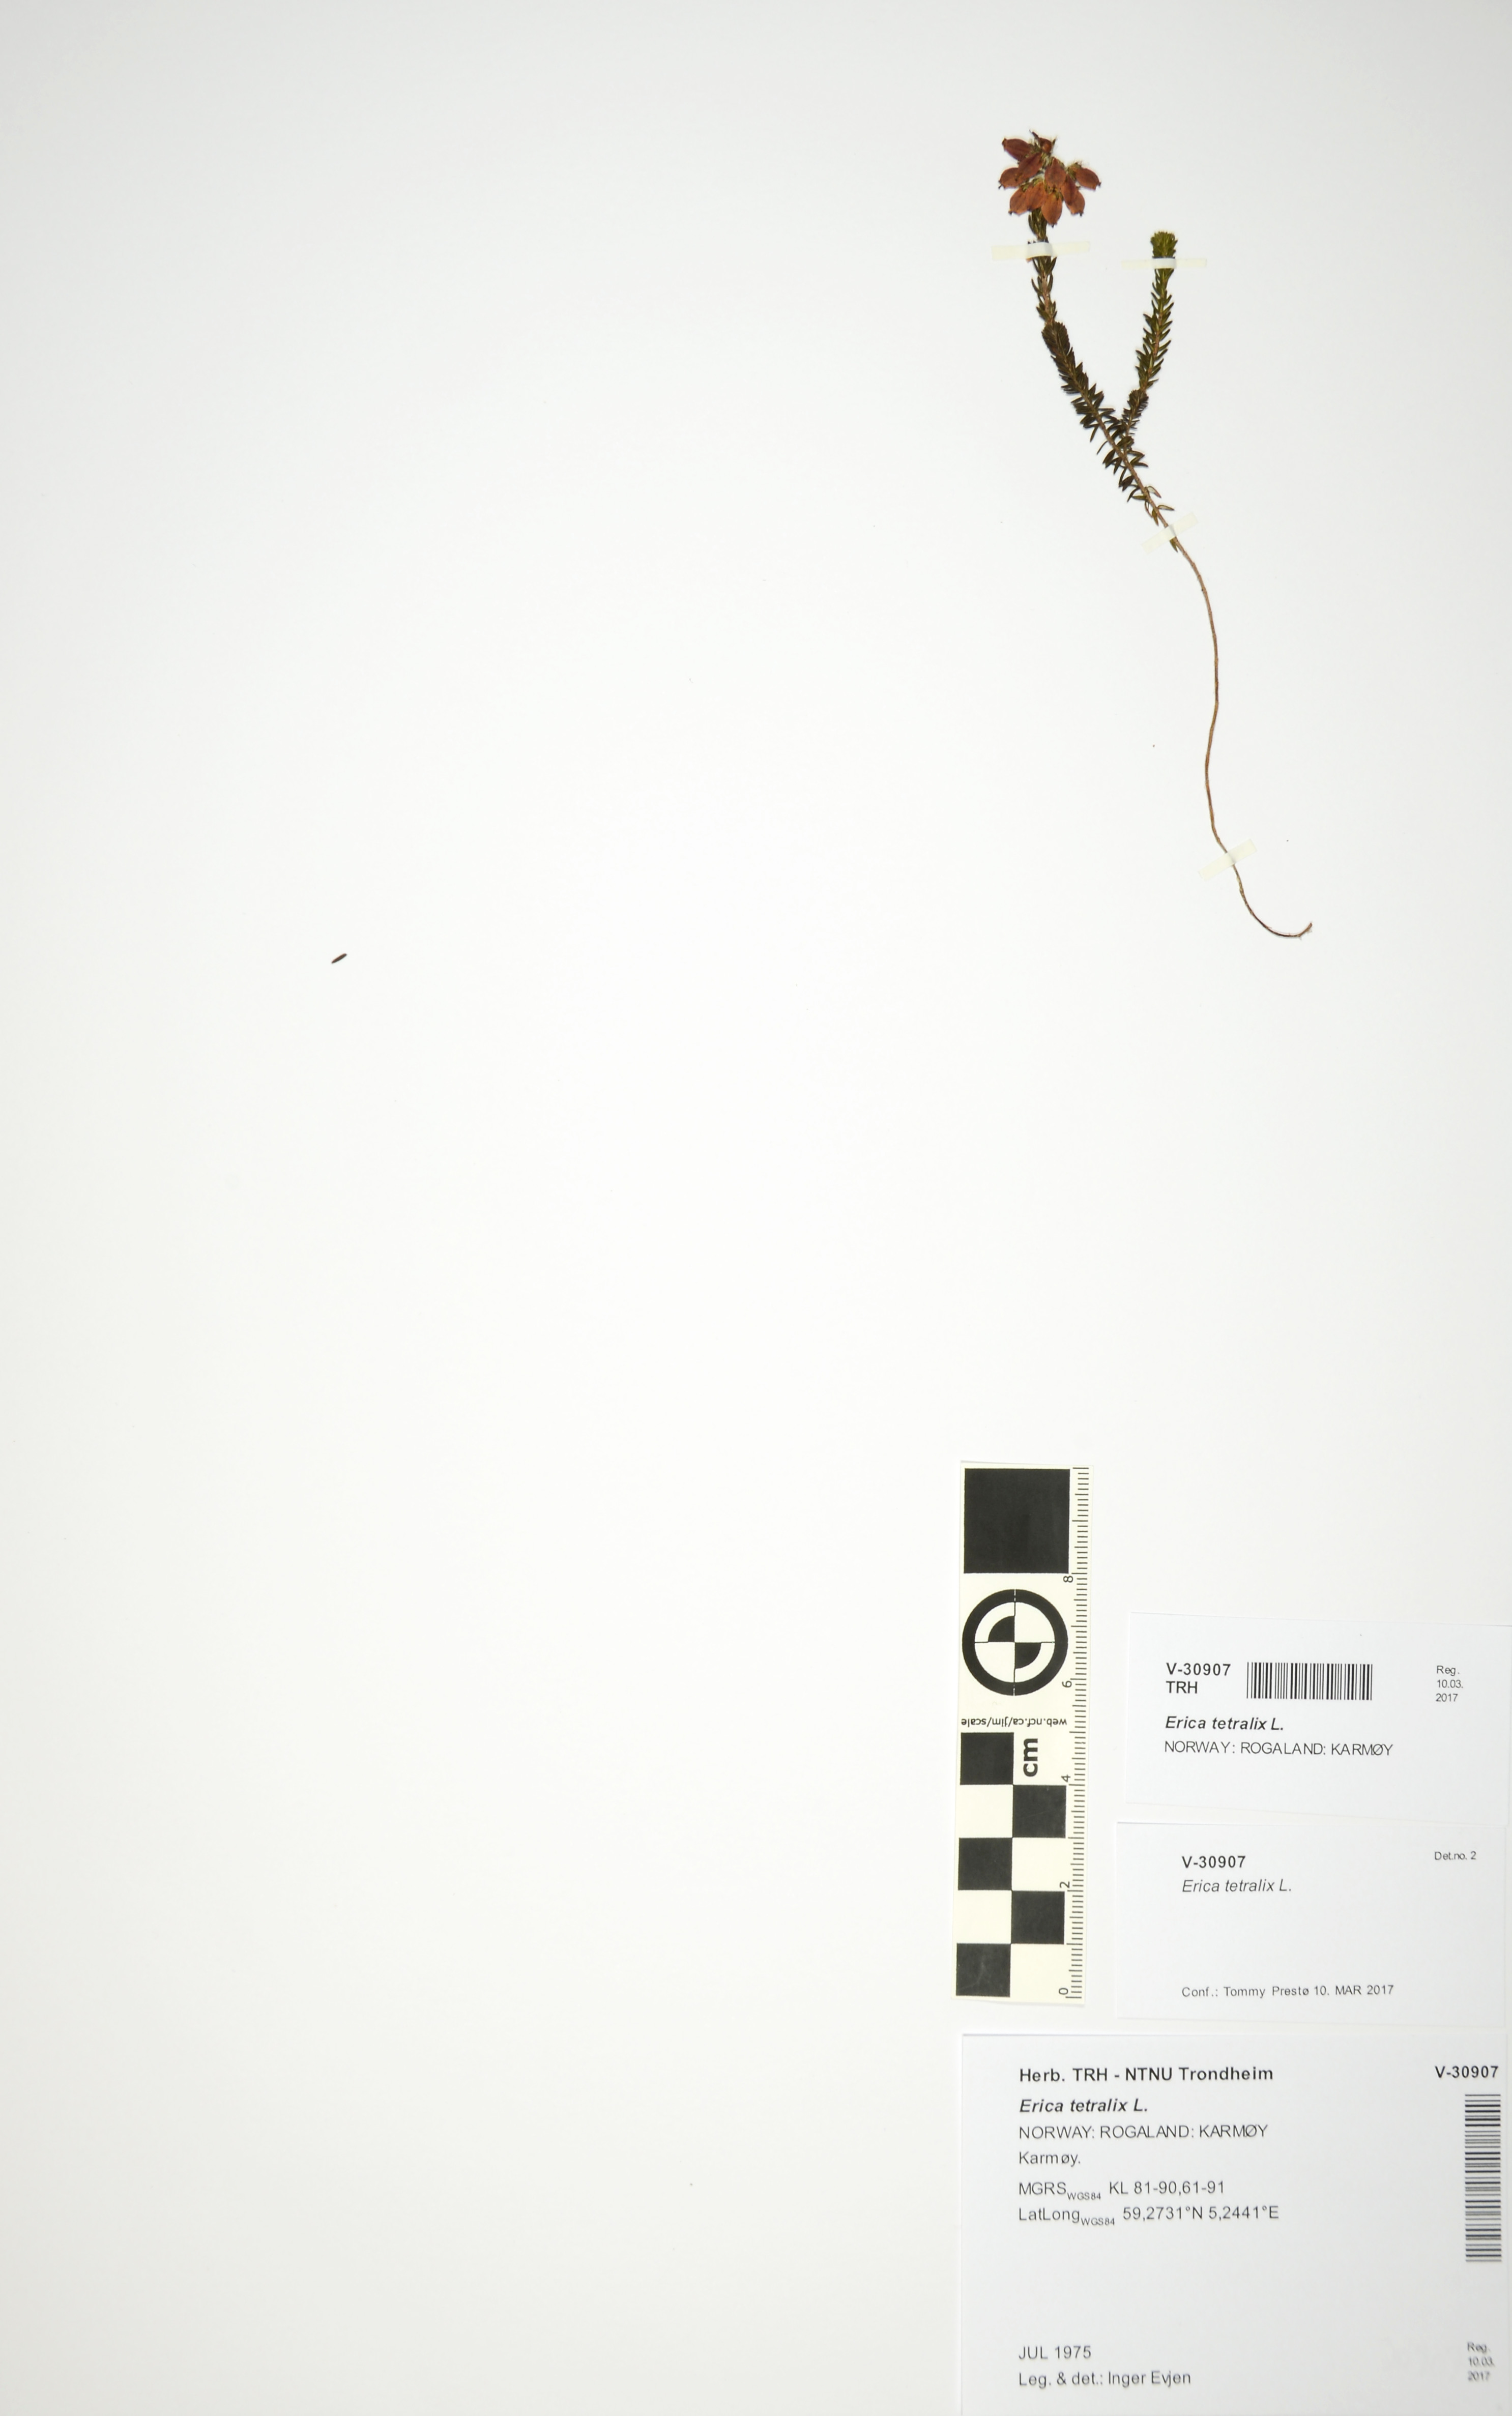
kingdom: Plantae
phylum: Tracheophyta
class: Magnoliopsida
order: Ericales
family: Ericaceae
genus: Erica
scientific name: Erica tetralix
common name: Cross-leaved heath
